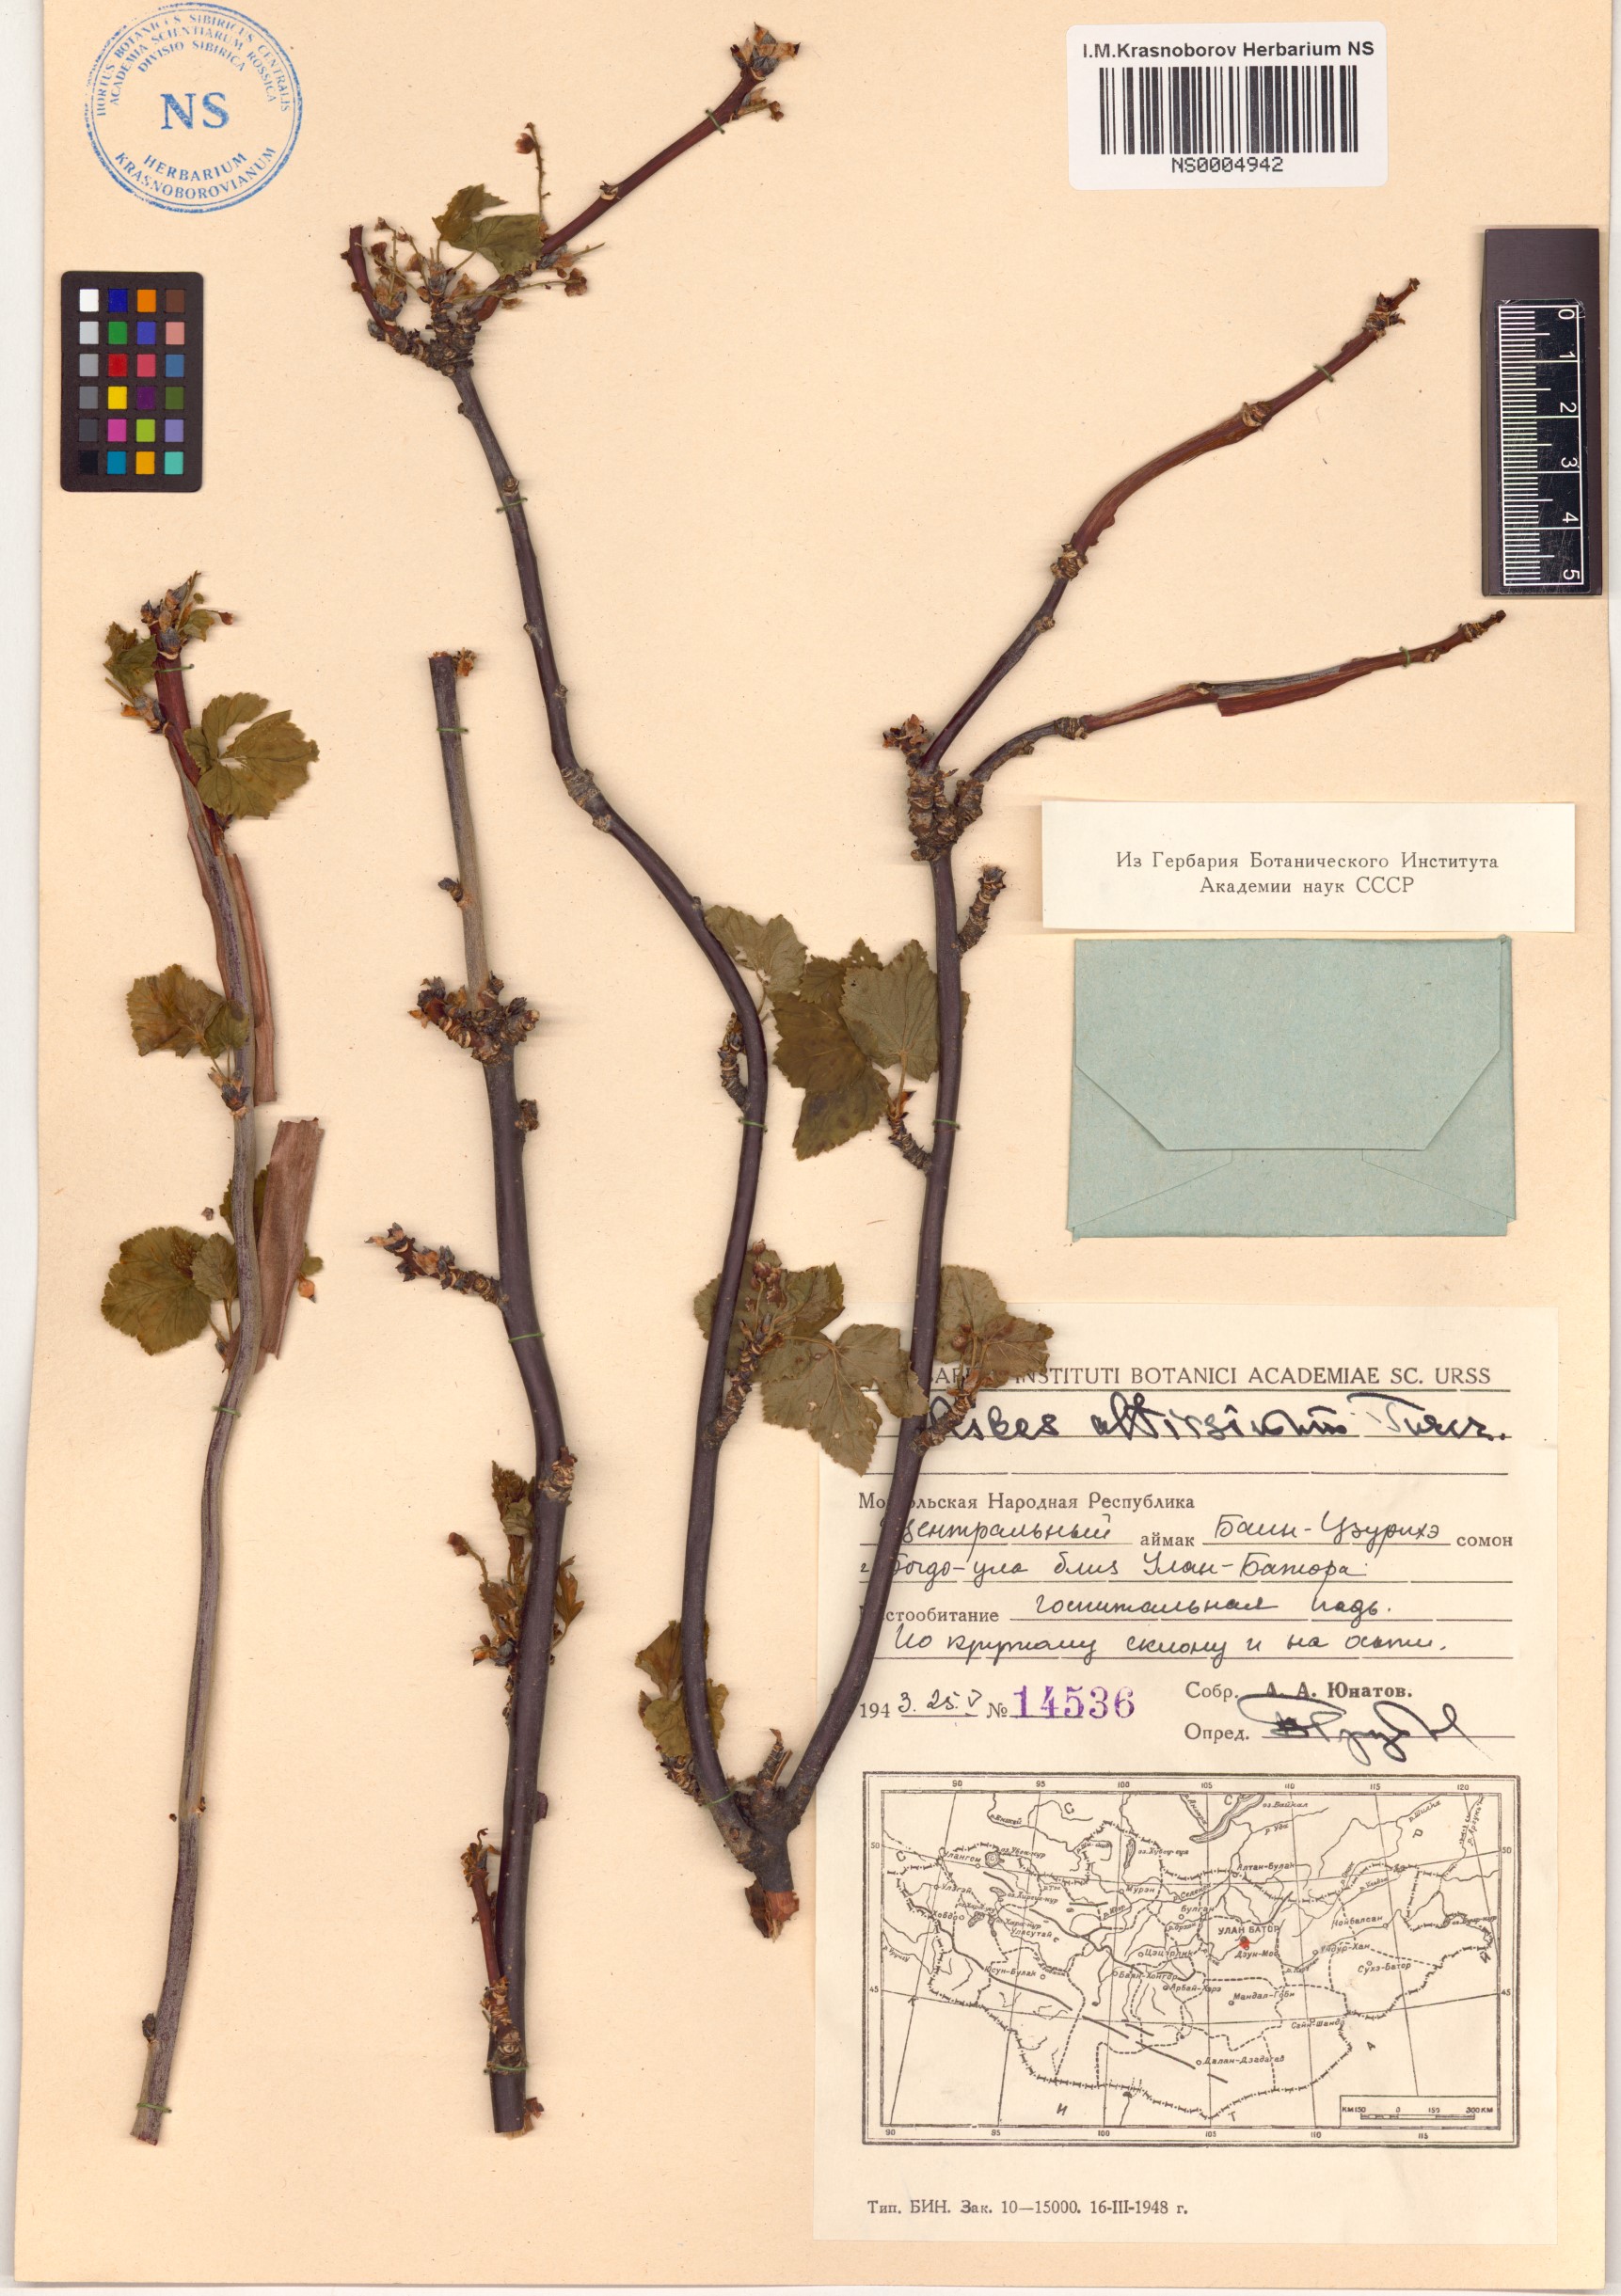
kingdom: Plantae
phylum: Tracheophyta
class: Magnoliopsida
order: Saxifragales
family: Grossulariaceae
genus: Ribes
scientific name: Ribes petraeum
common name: Rock currant
